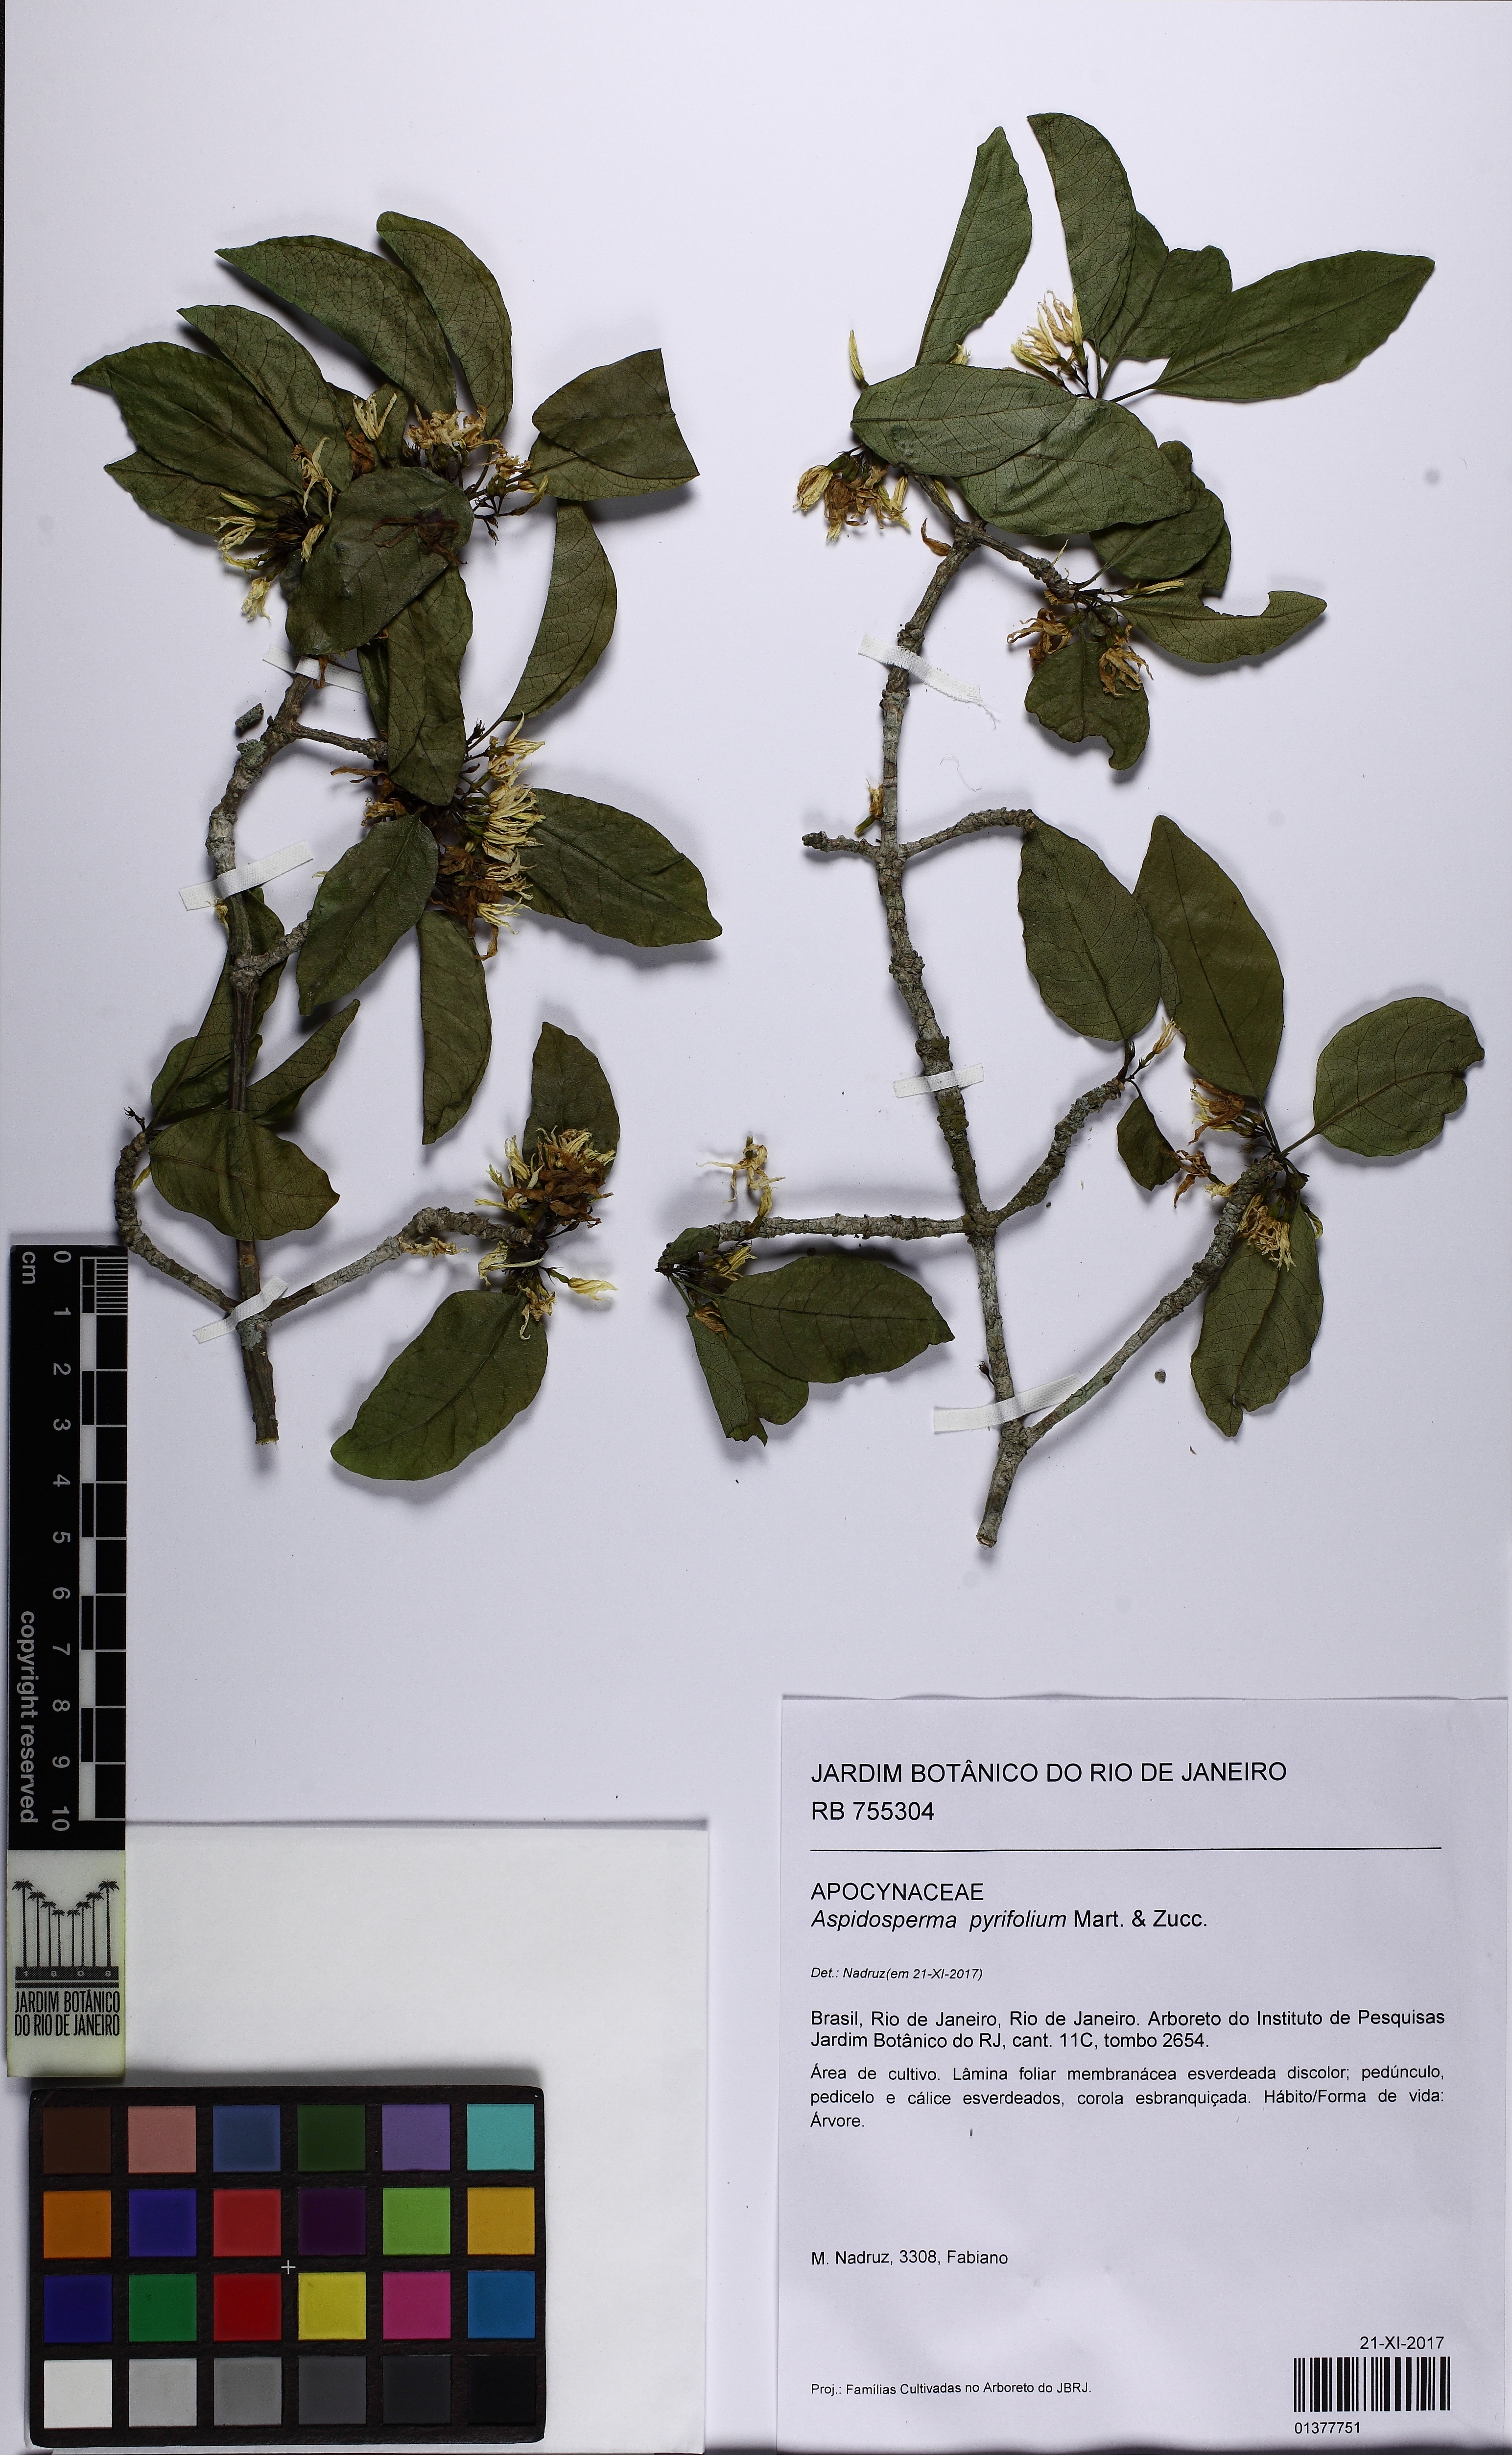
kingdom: Plantae
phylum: Tracheophyta
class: Magnoliopsida
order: Gentianales
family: Apocynaceae
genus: Aspidosperma
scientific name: Aspidosperma pyrifolium
